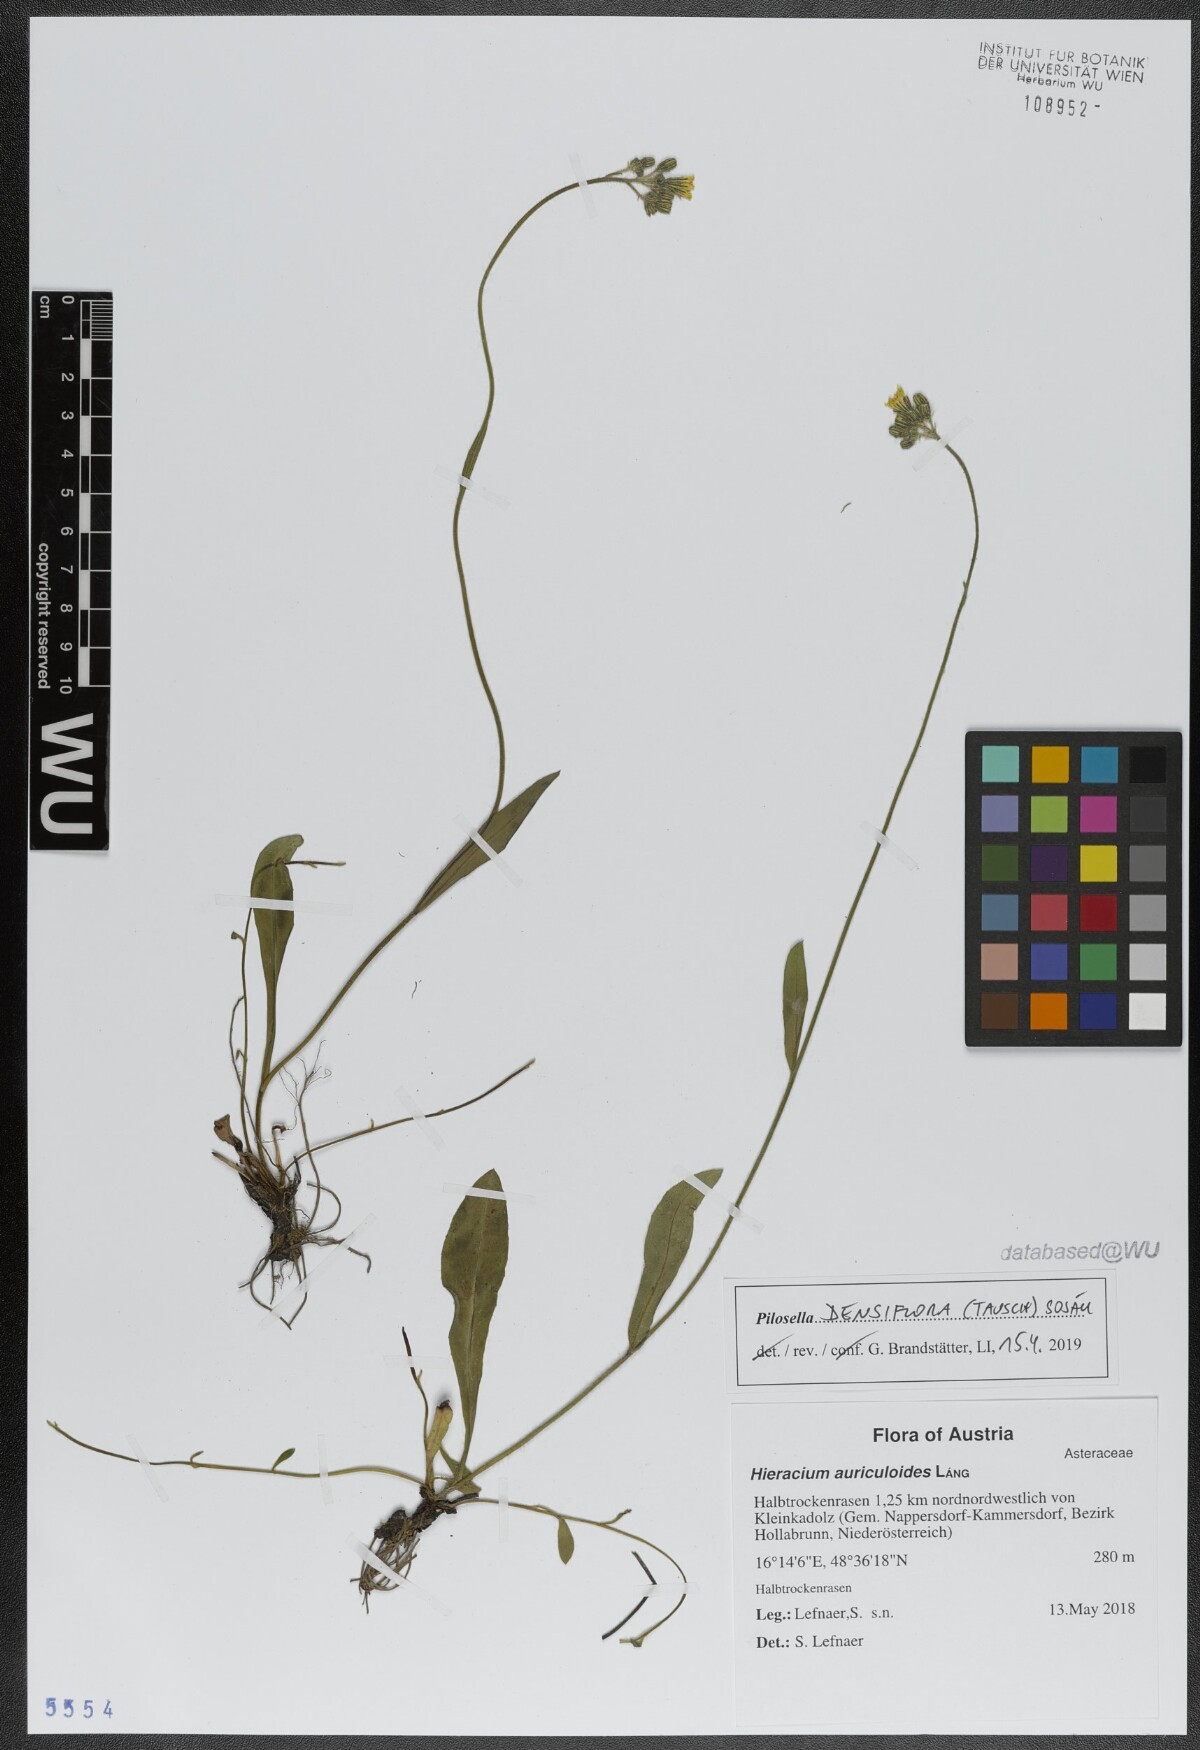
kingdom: Plantae
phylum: Tracheophyta
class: Magnoliopsida
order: Asterales
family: Asteraceae
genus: Pilosella
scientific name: Pilosella densiflora
